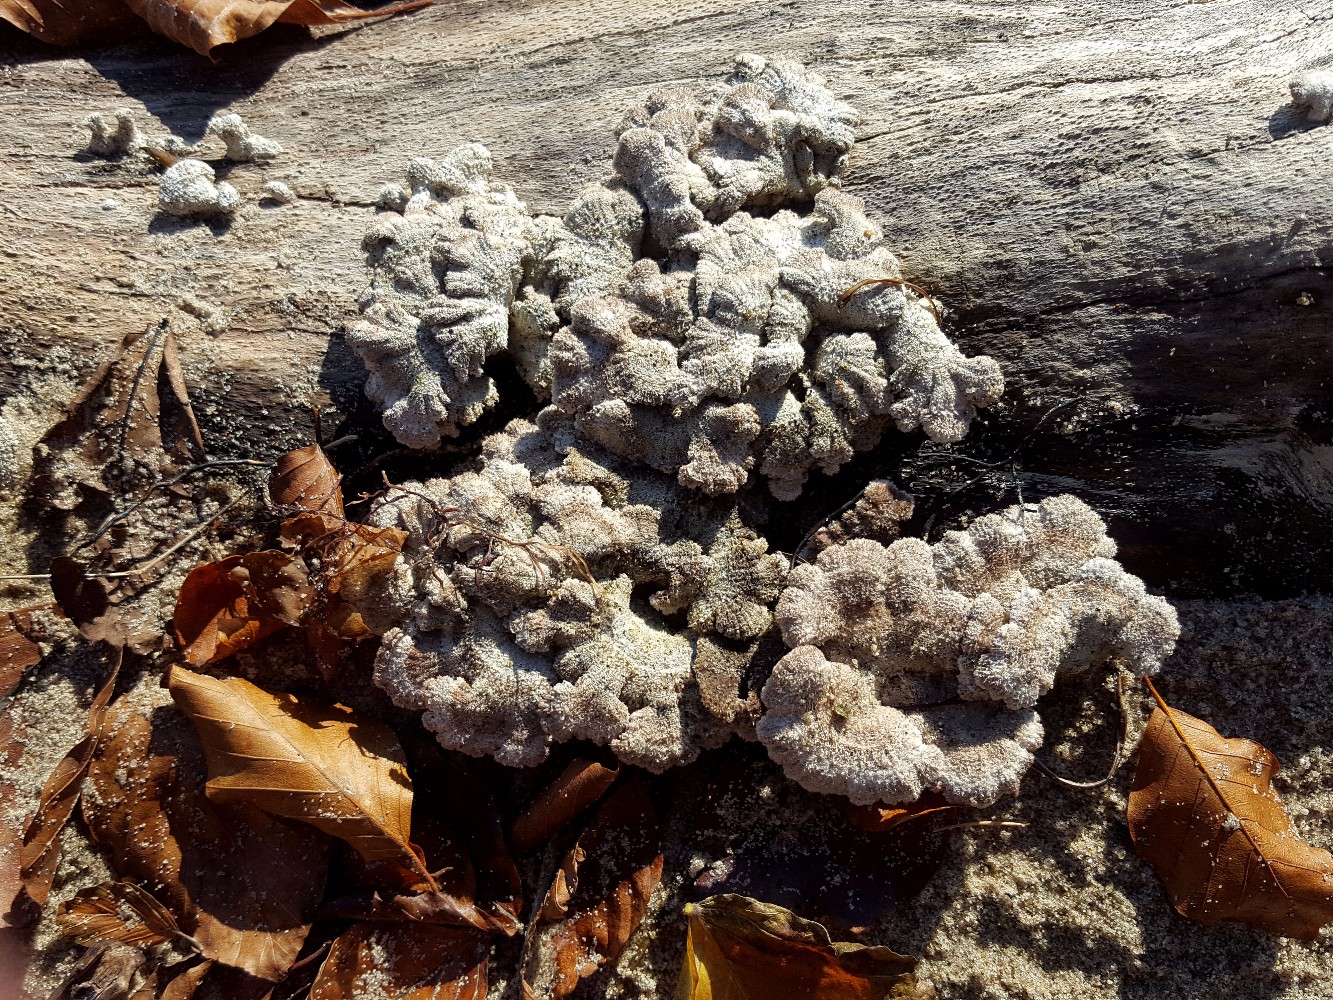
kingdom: Fungi
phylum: Basidiomycota
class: Agaricomycetes
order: Agaricales
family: Schizophyllaceae
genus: Schizophyllum
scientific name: Schizophyllum commune
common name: kløvblad
